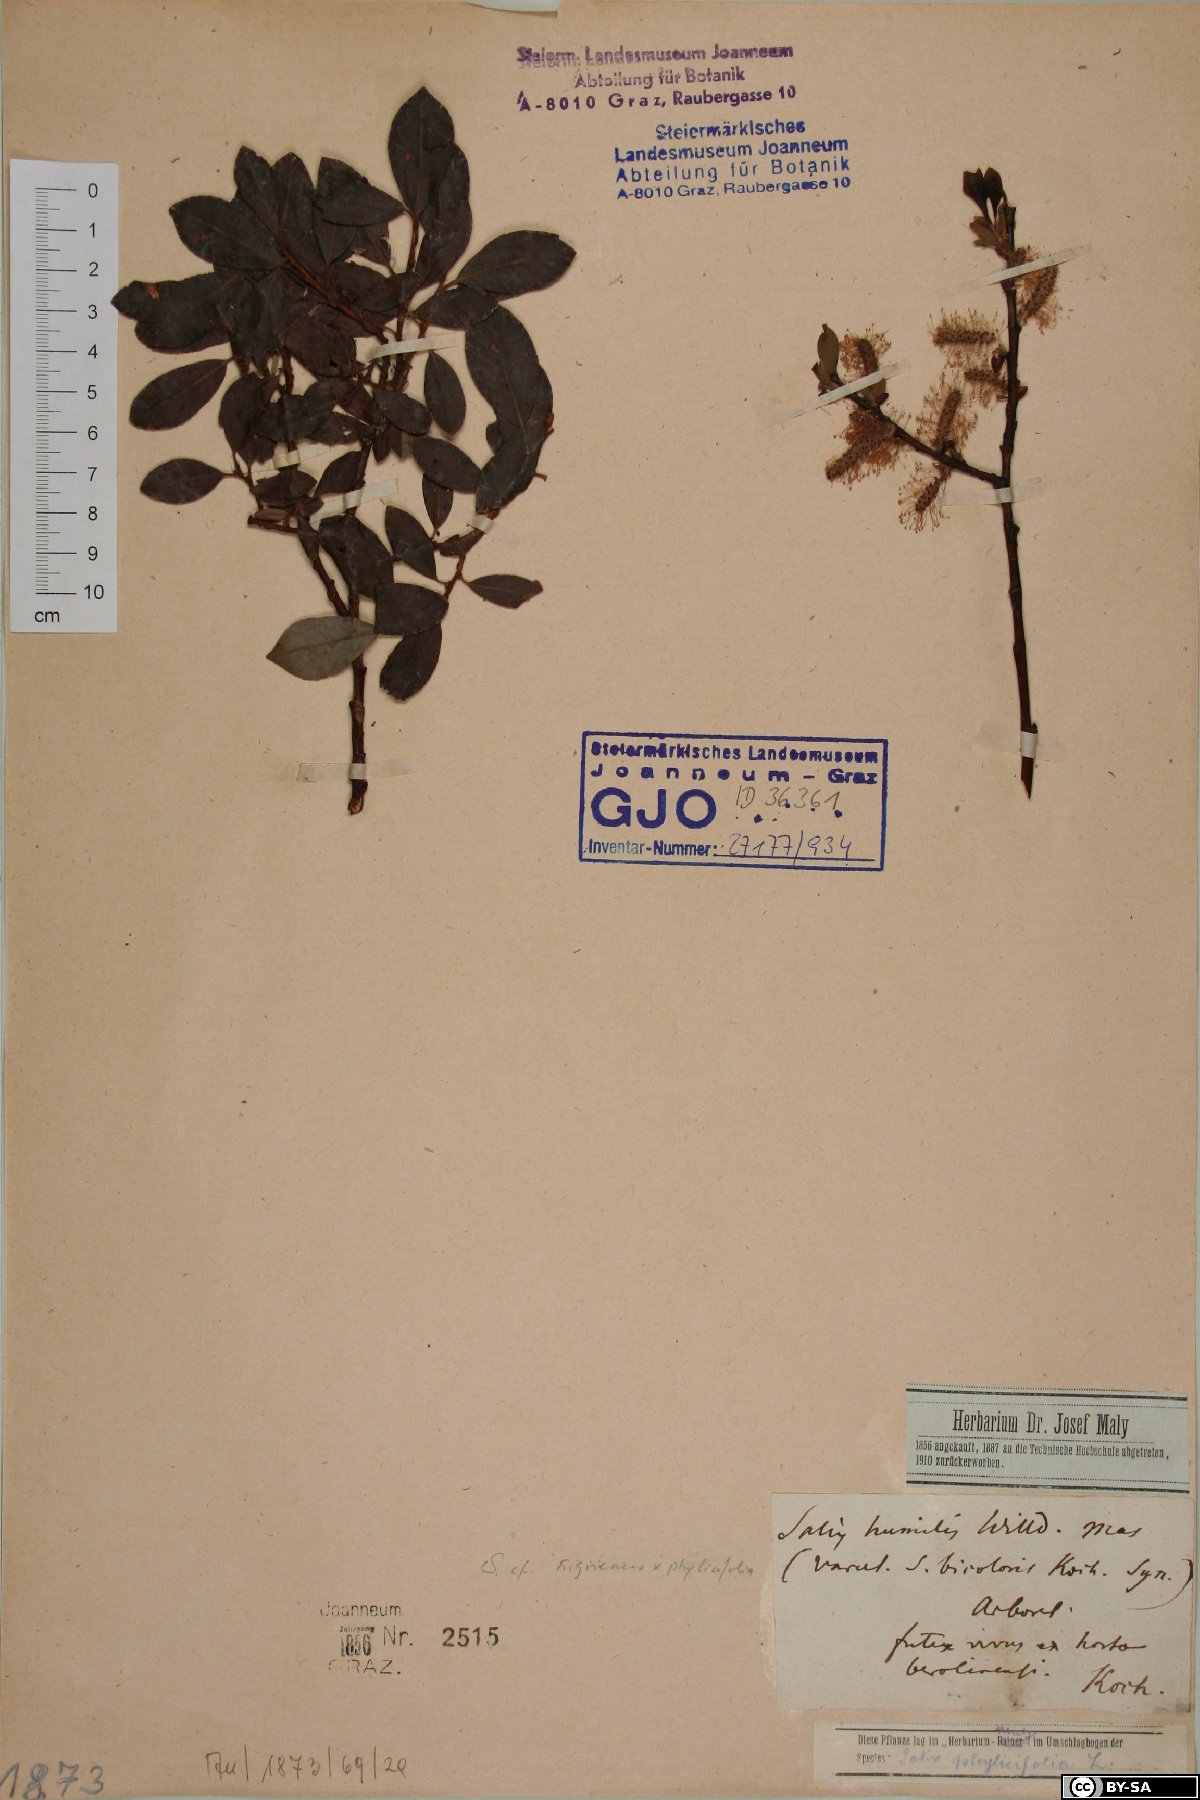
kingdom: Plantae
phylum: Tracheophyta
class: Magnoliopsida
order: Malpighiales
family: Salicaceae
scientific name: Salicaceae
